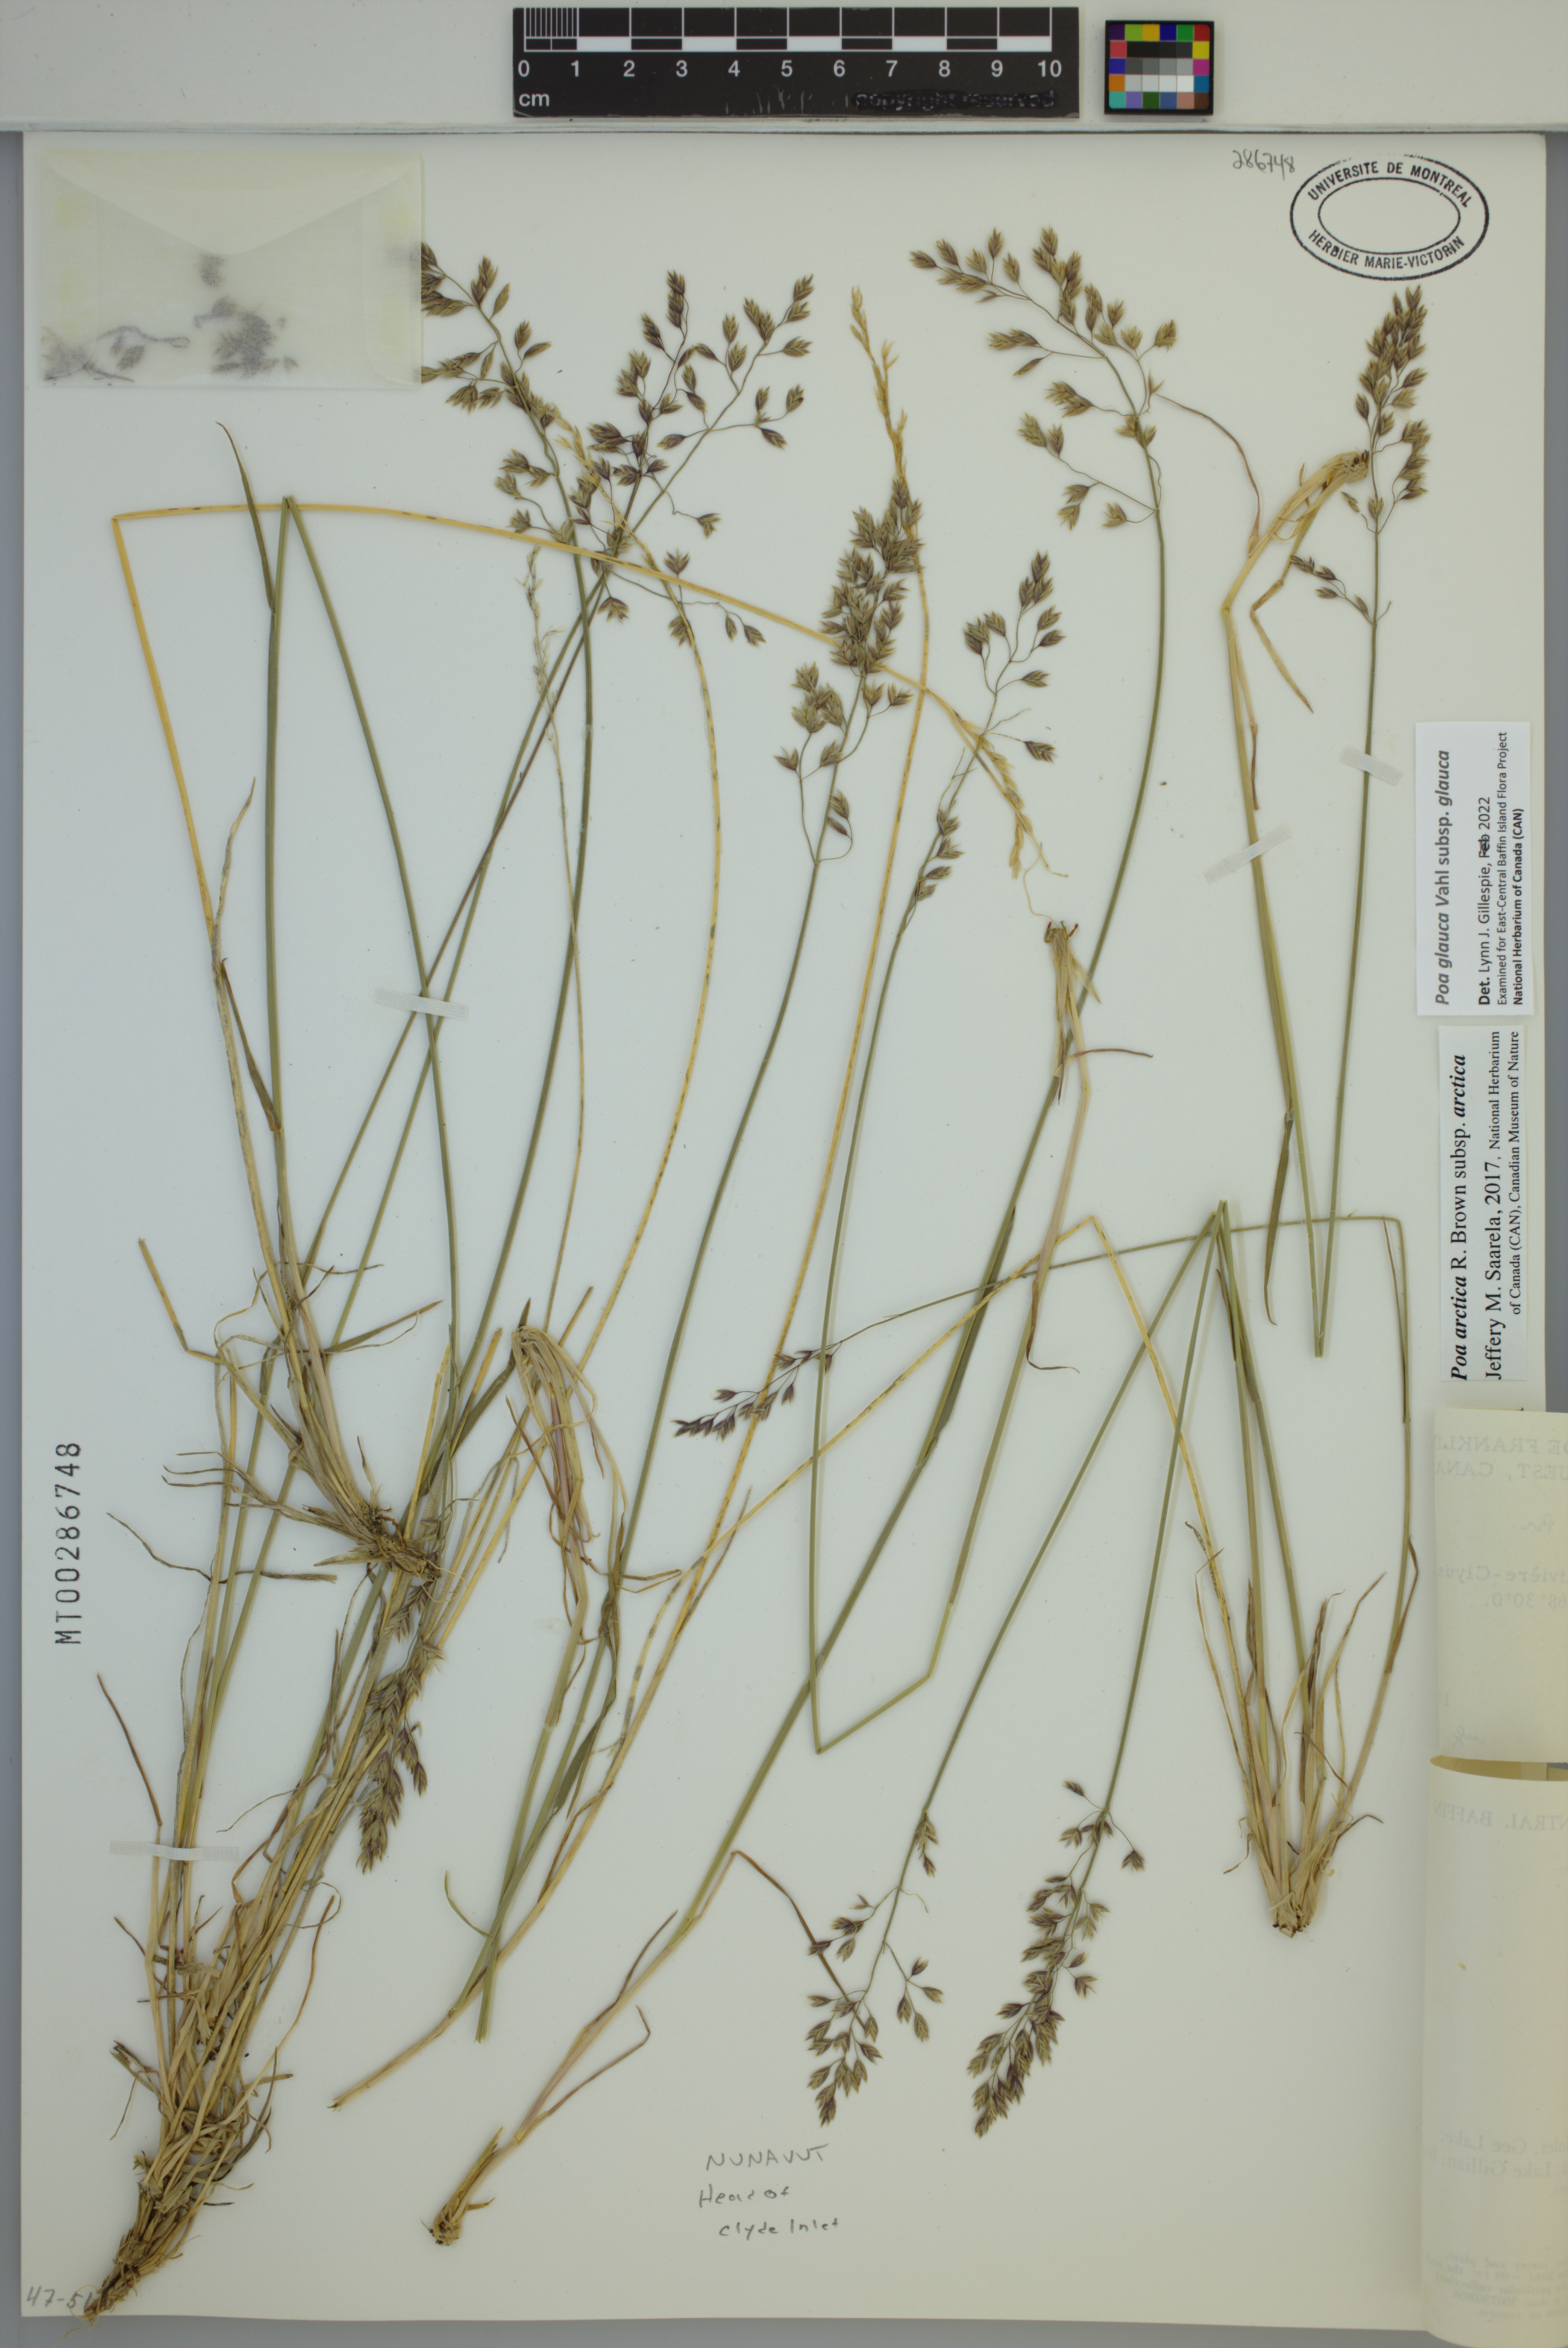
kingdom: Plantae
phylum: Tracheophyta
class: Liliopsida
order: Poales
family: Poaceae
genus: Poa
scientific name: Poa glauca
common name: Glaucous bluegrass
